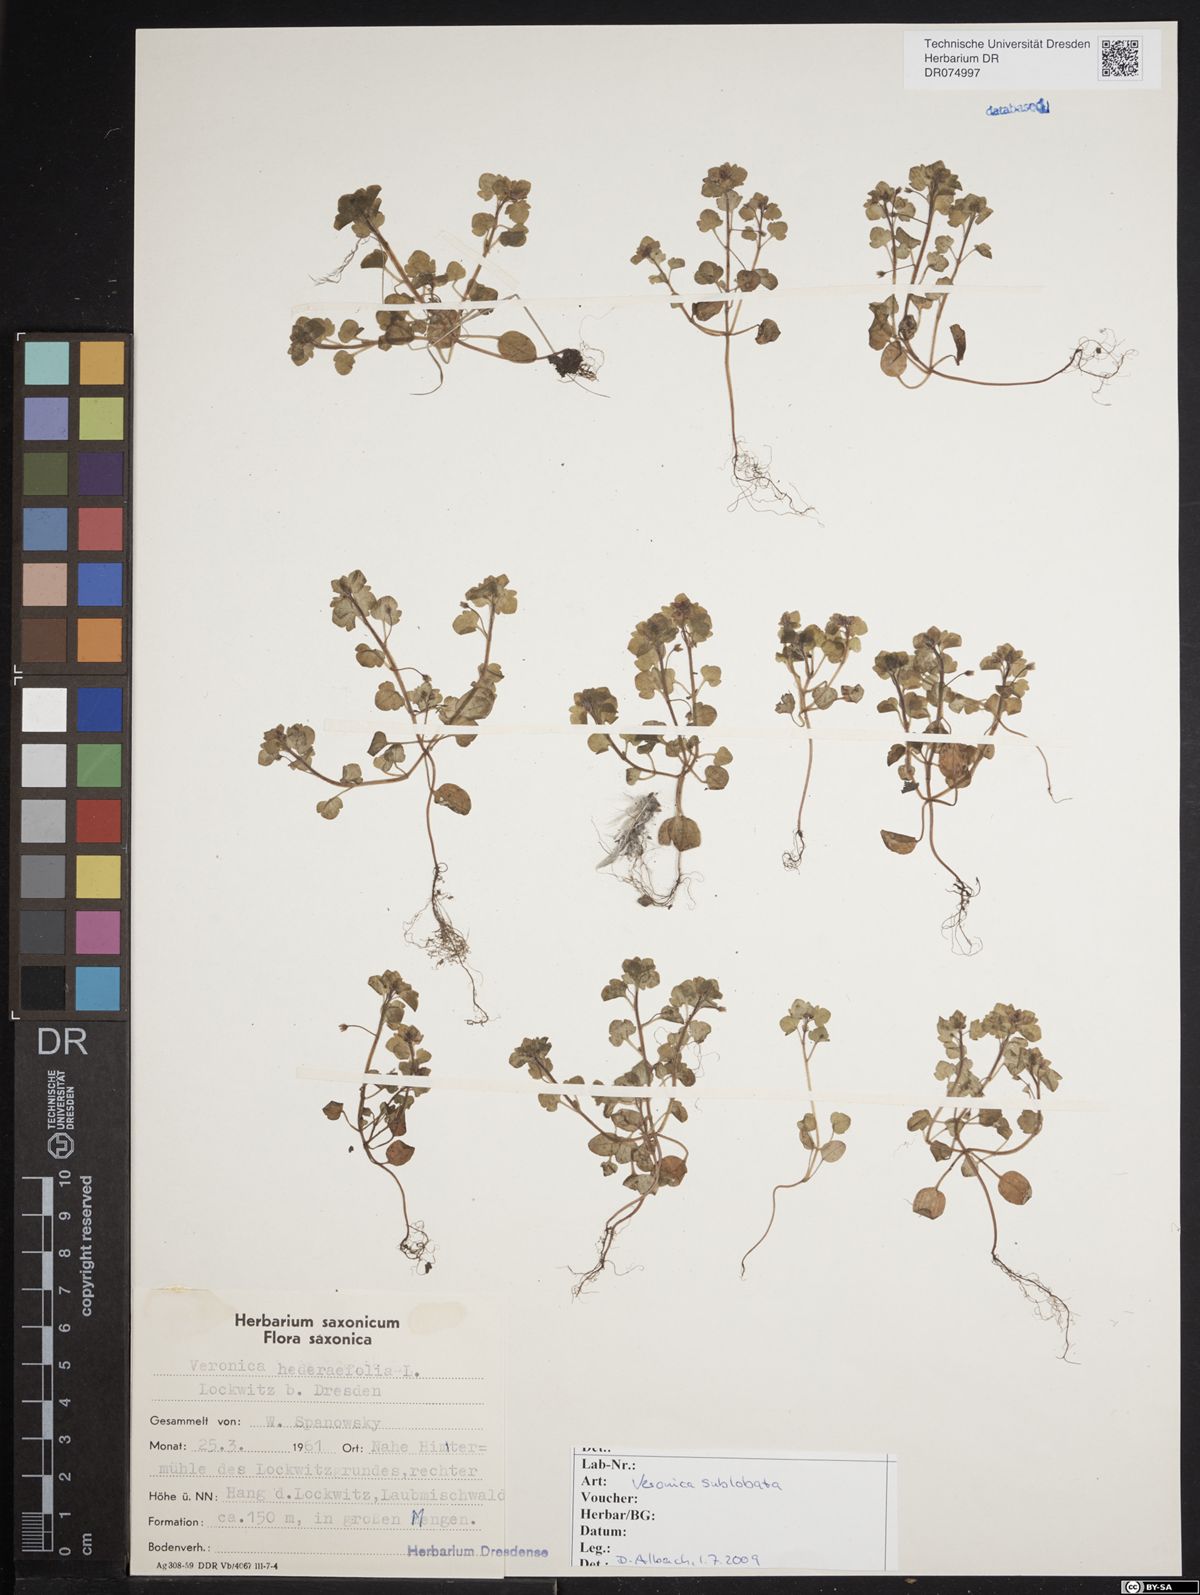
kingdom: Plantae
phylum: Tracheophyta
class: Magnoliopsida
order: Lamiales
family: Plantaginaceae
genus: Veronica
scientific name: Veronica sublobata
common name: False ivy-leaved speedwell
